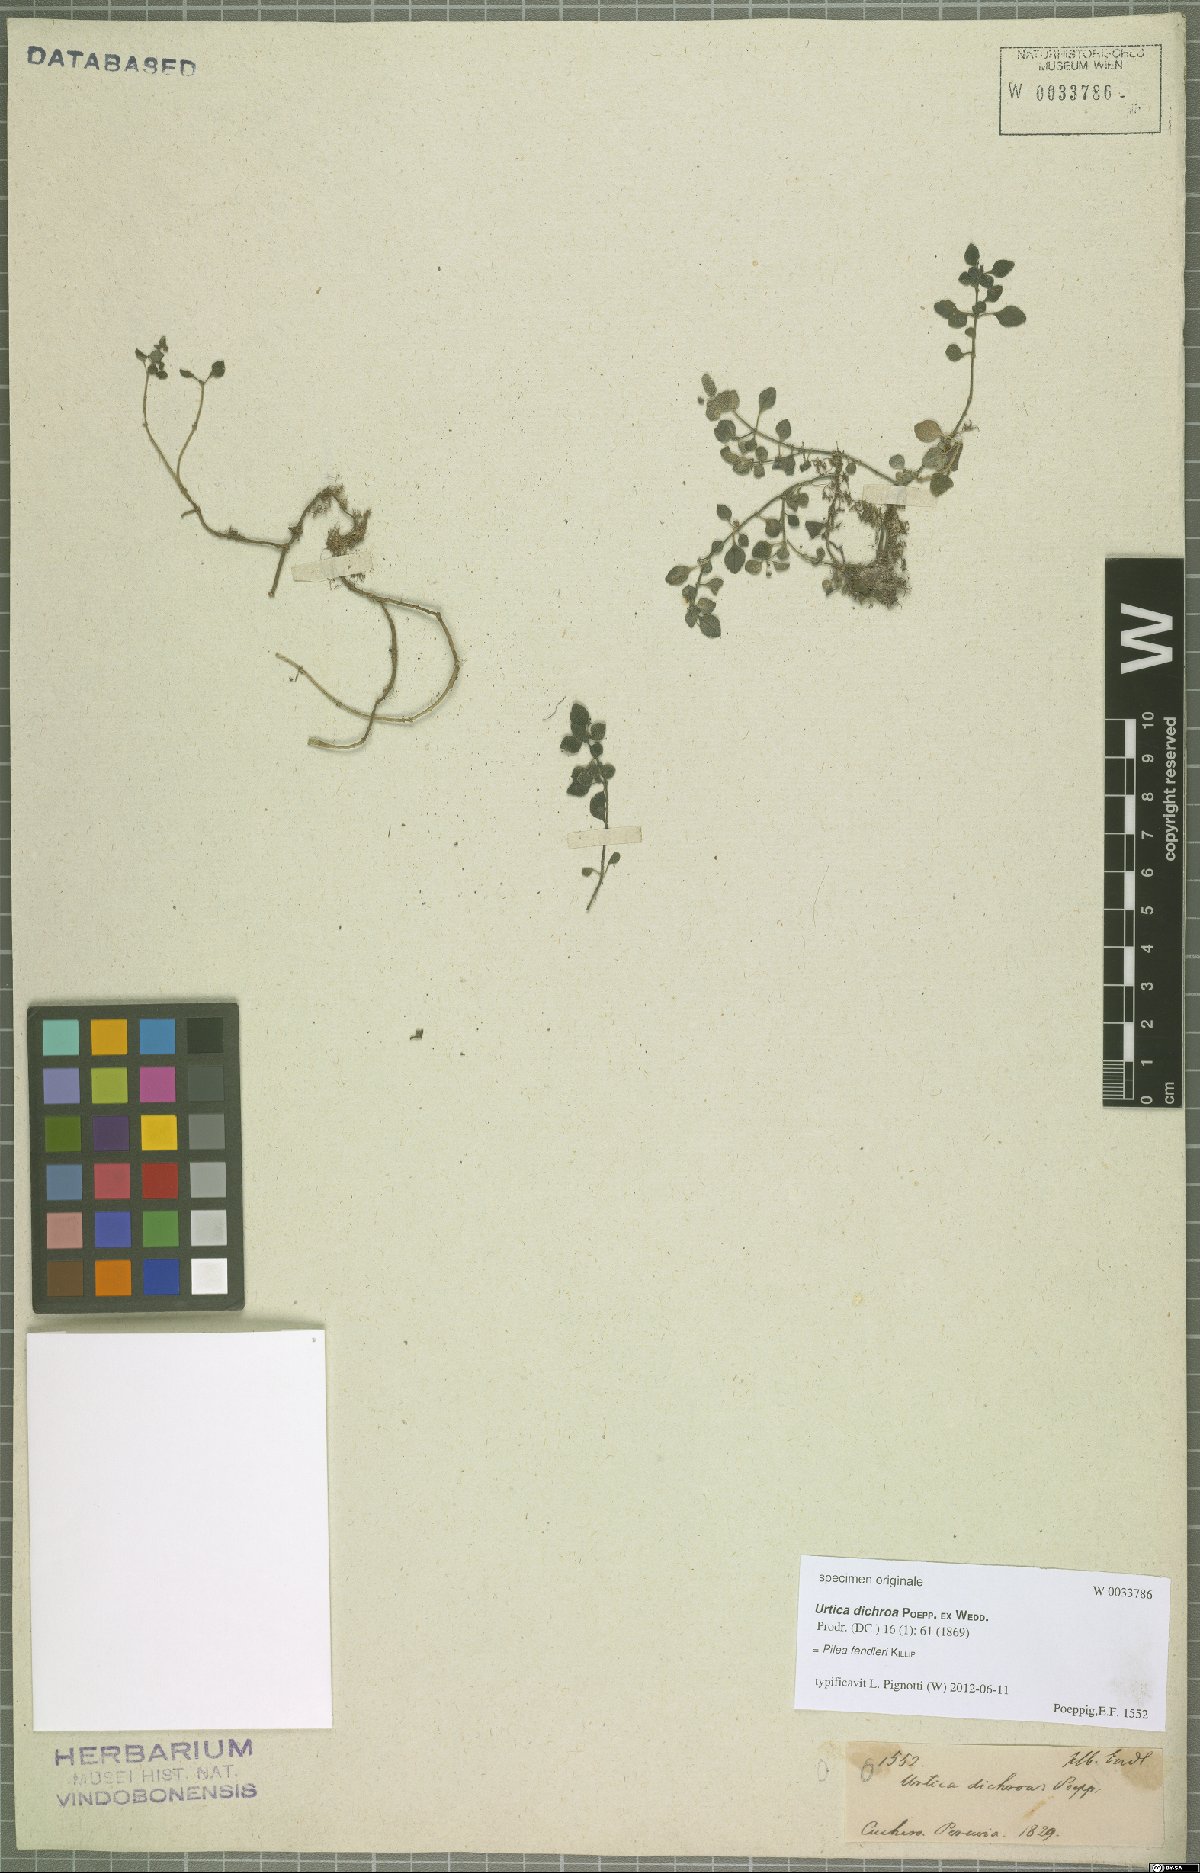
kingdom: Plantae
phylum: Tracheophyta
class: Magnoliopsida
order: Rosales
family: Urticaceae
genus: Pilea
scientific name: Pilea fendleri
